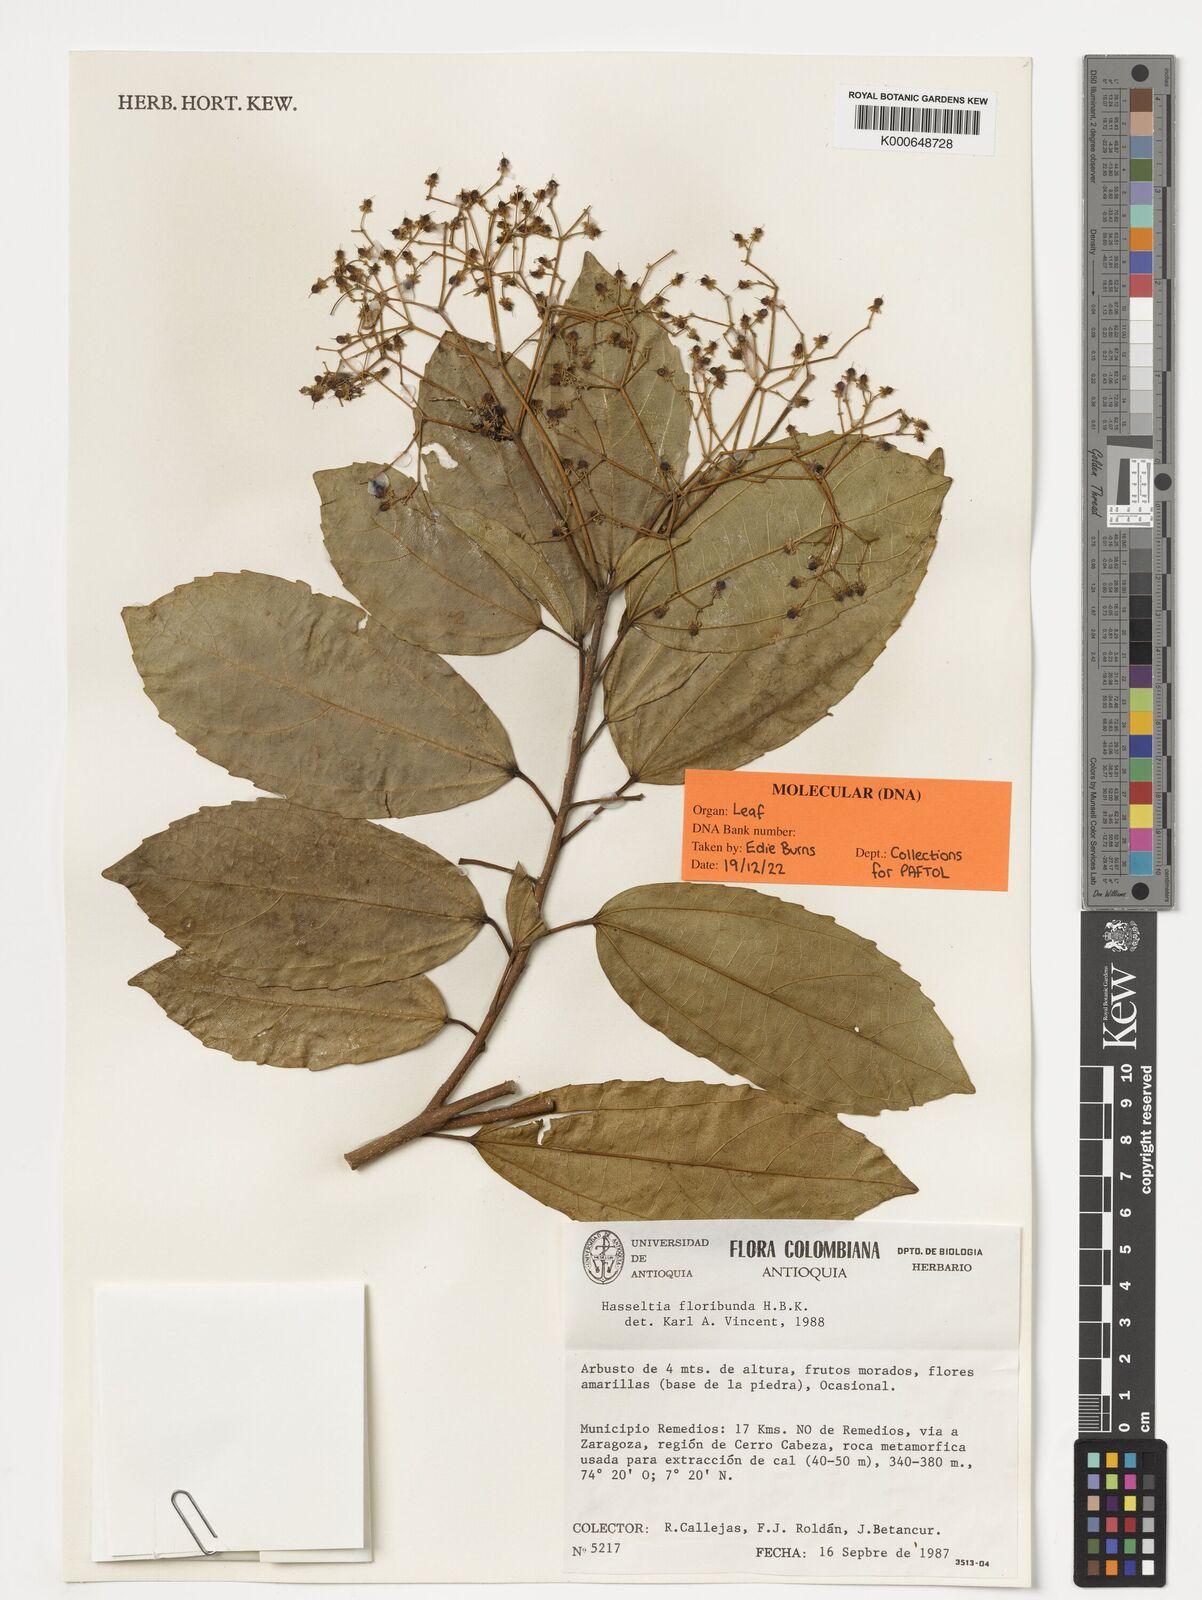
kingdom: Plantae
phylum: Tracheophyta
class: Magnoliopsida
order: Malpighiales
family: Salicaceae
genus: Hasseltia
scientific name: Hasseltia floribunda
